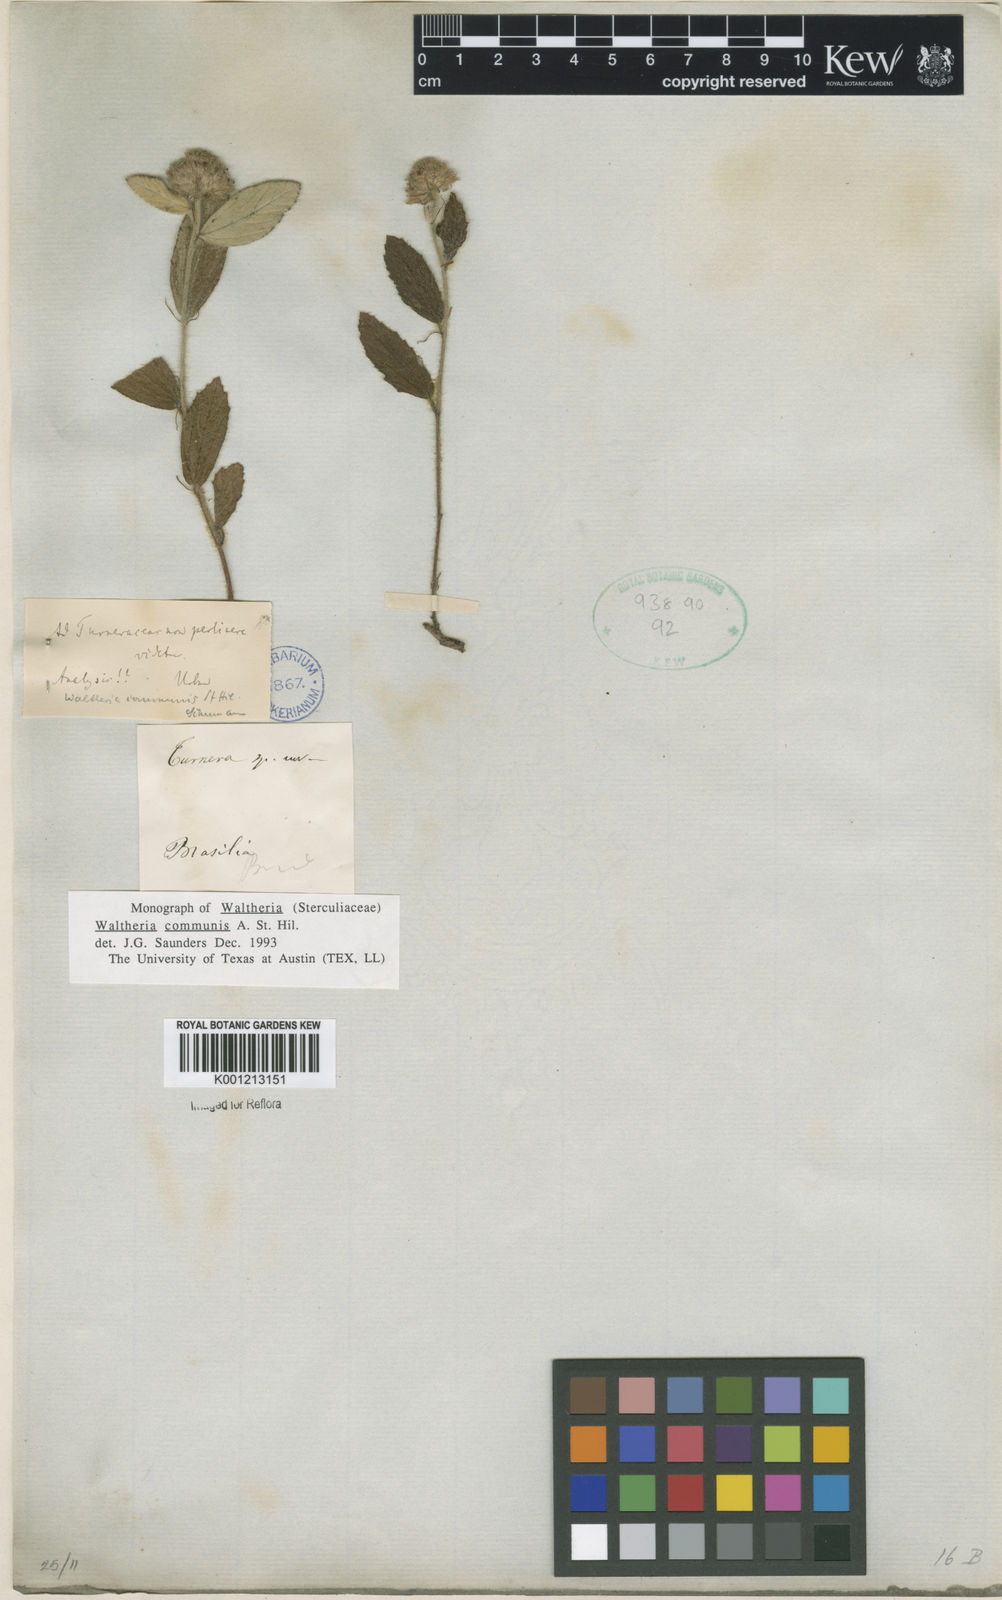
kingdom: Plantae
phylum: Tracheophyta
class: Magnoliopsida
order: Malvales
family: Malvaceae
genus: Waltheria
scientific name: Waltheria communis
